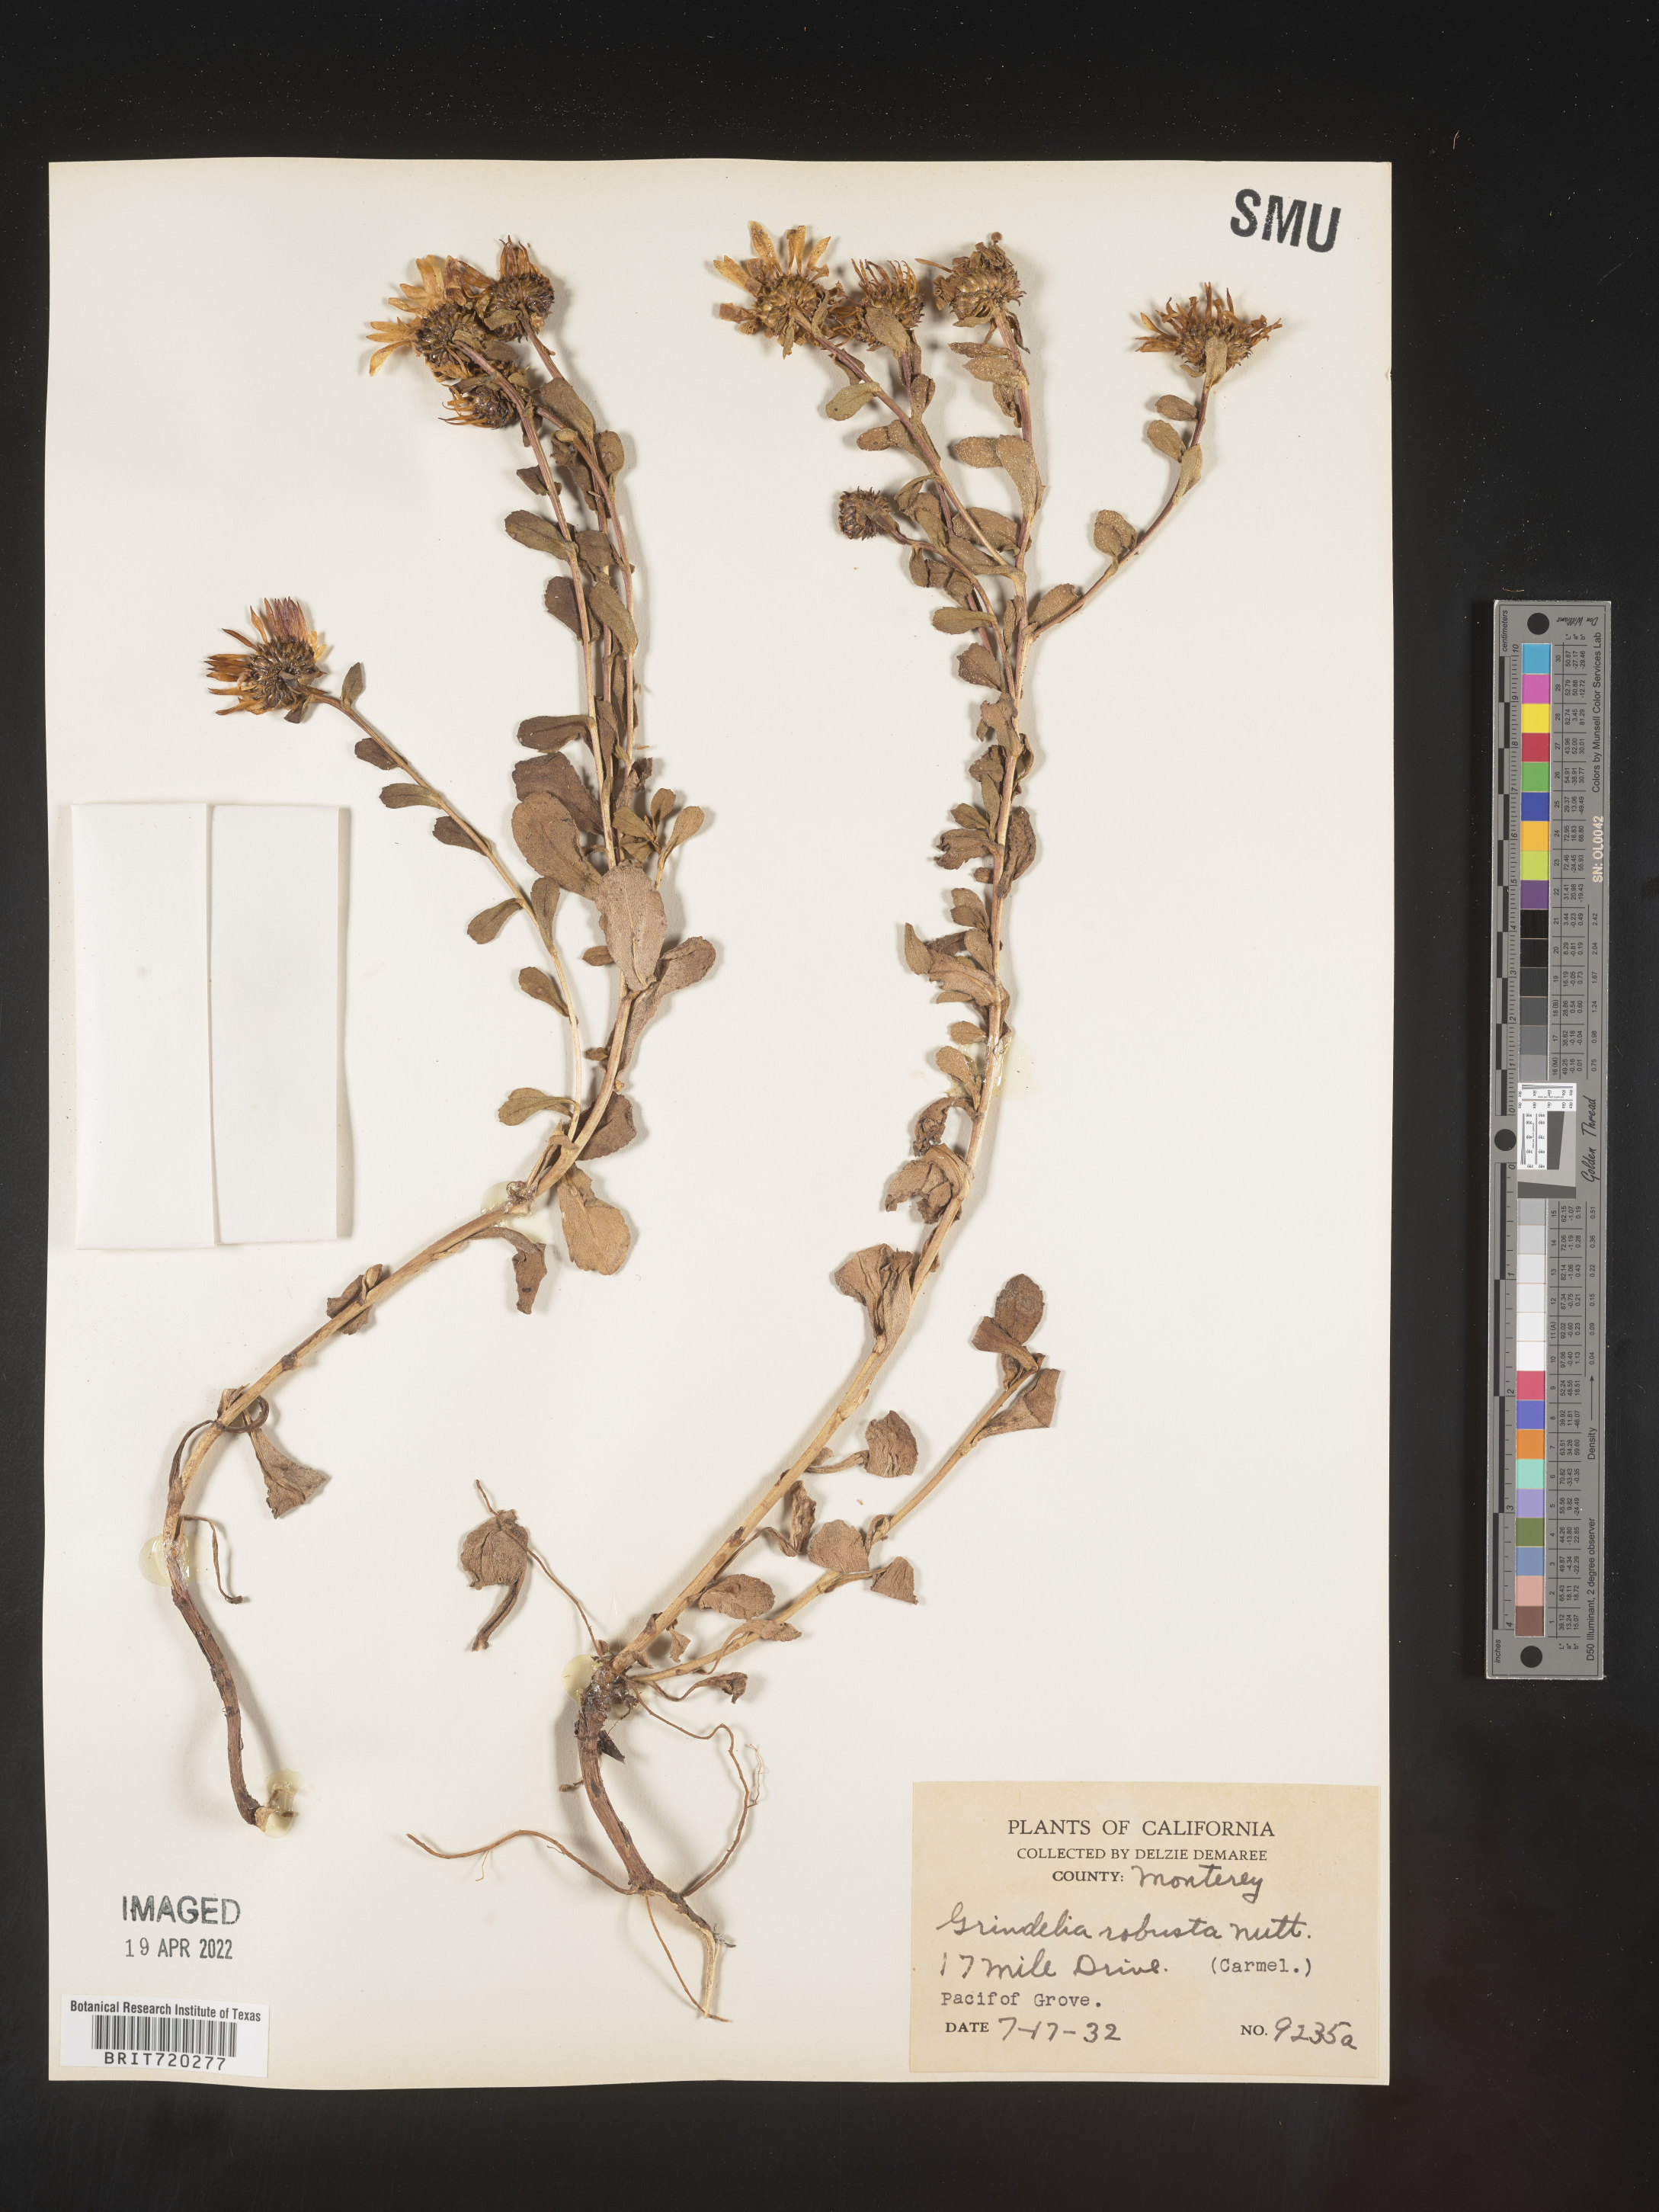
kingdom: Plantae
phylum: Tracheophyta
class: Magnoliopsida
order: Asterales
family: Asteraceae
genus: Grindelia
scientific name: Grindelia
